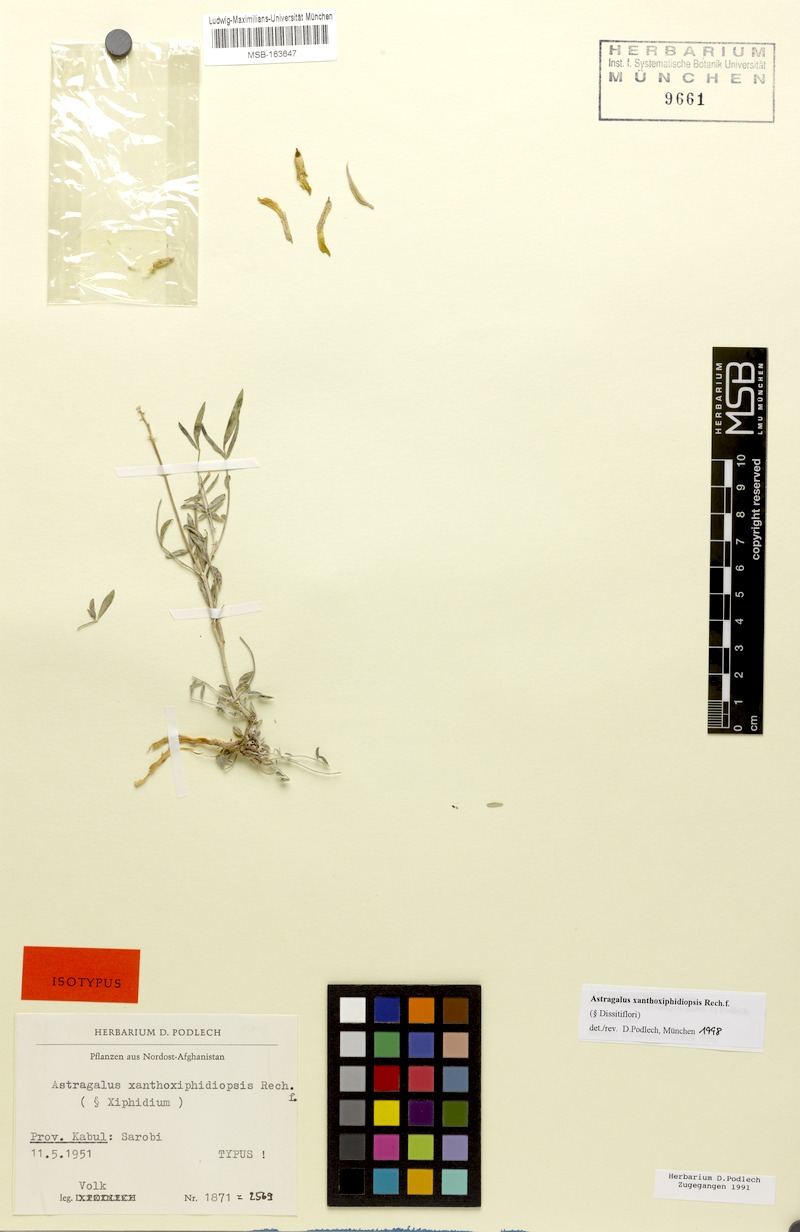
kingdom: Plantae
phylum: Tracheophyta
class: Magnoliopsida
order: Fabales
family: Fabaceae
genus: Astragalus
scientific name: Astragalus xanthoxiphidiopsis
